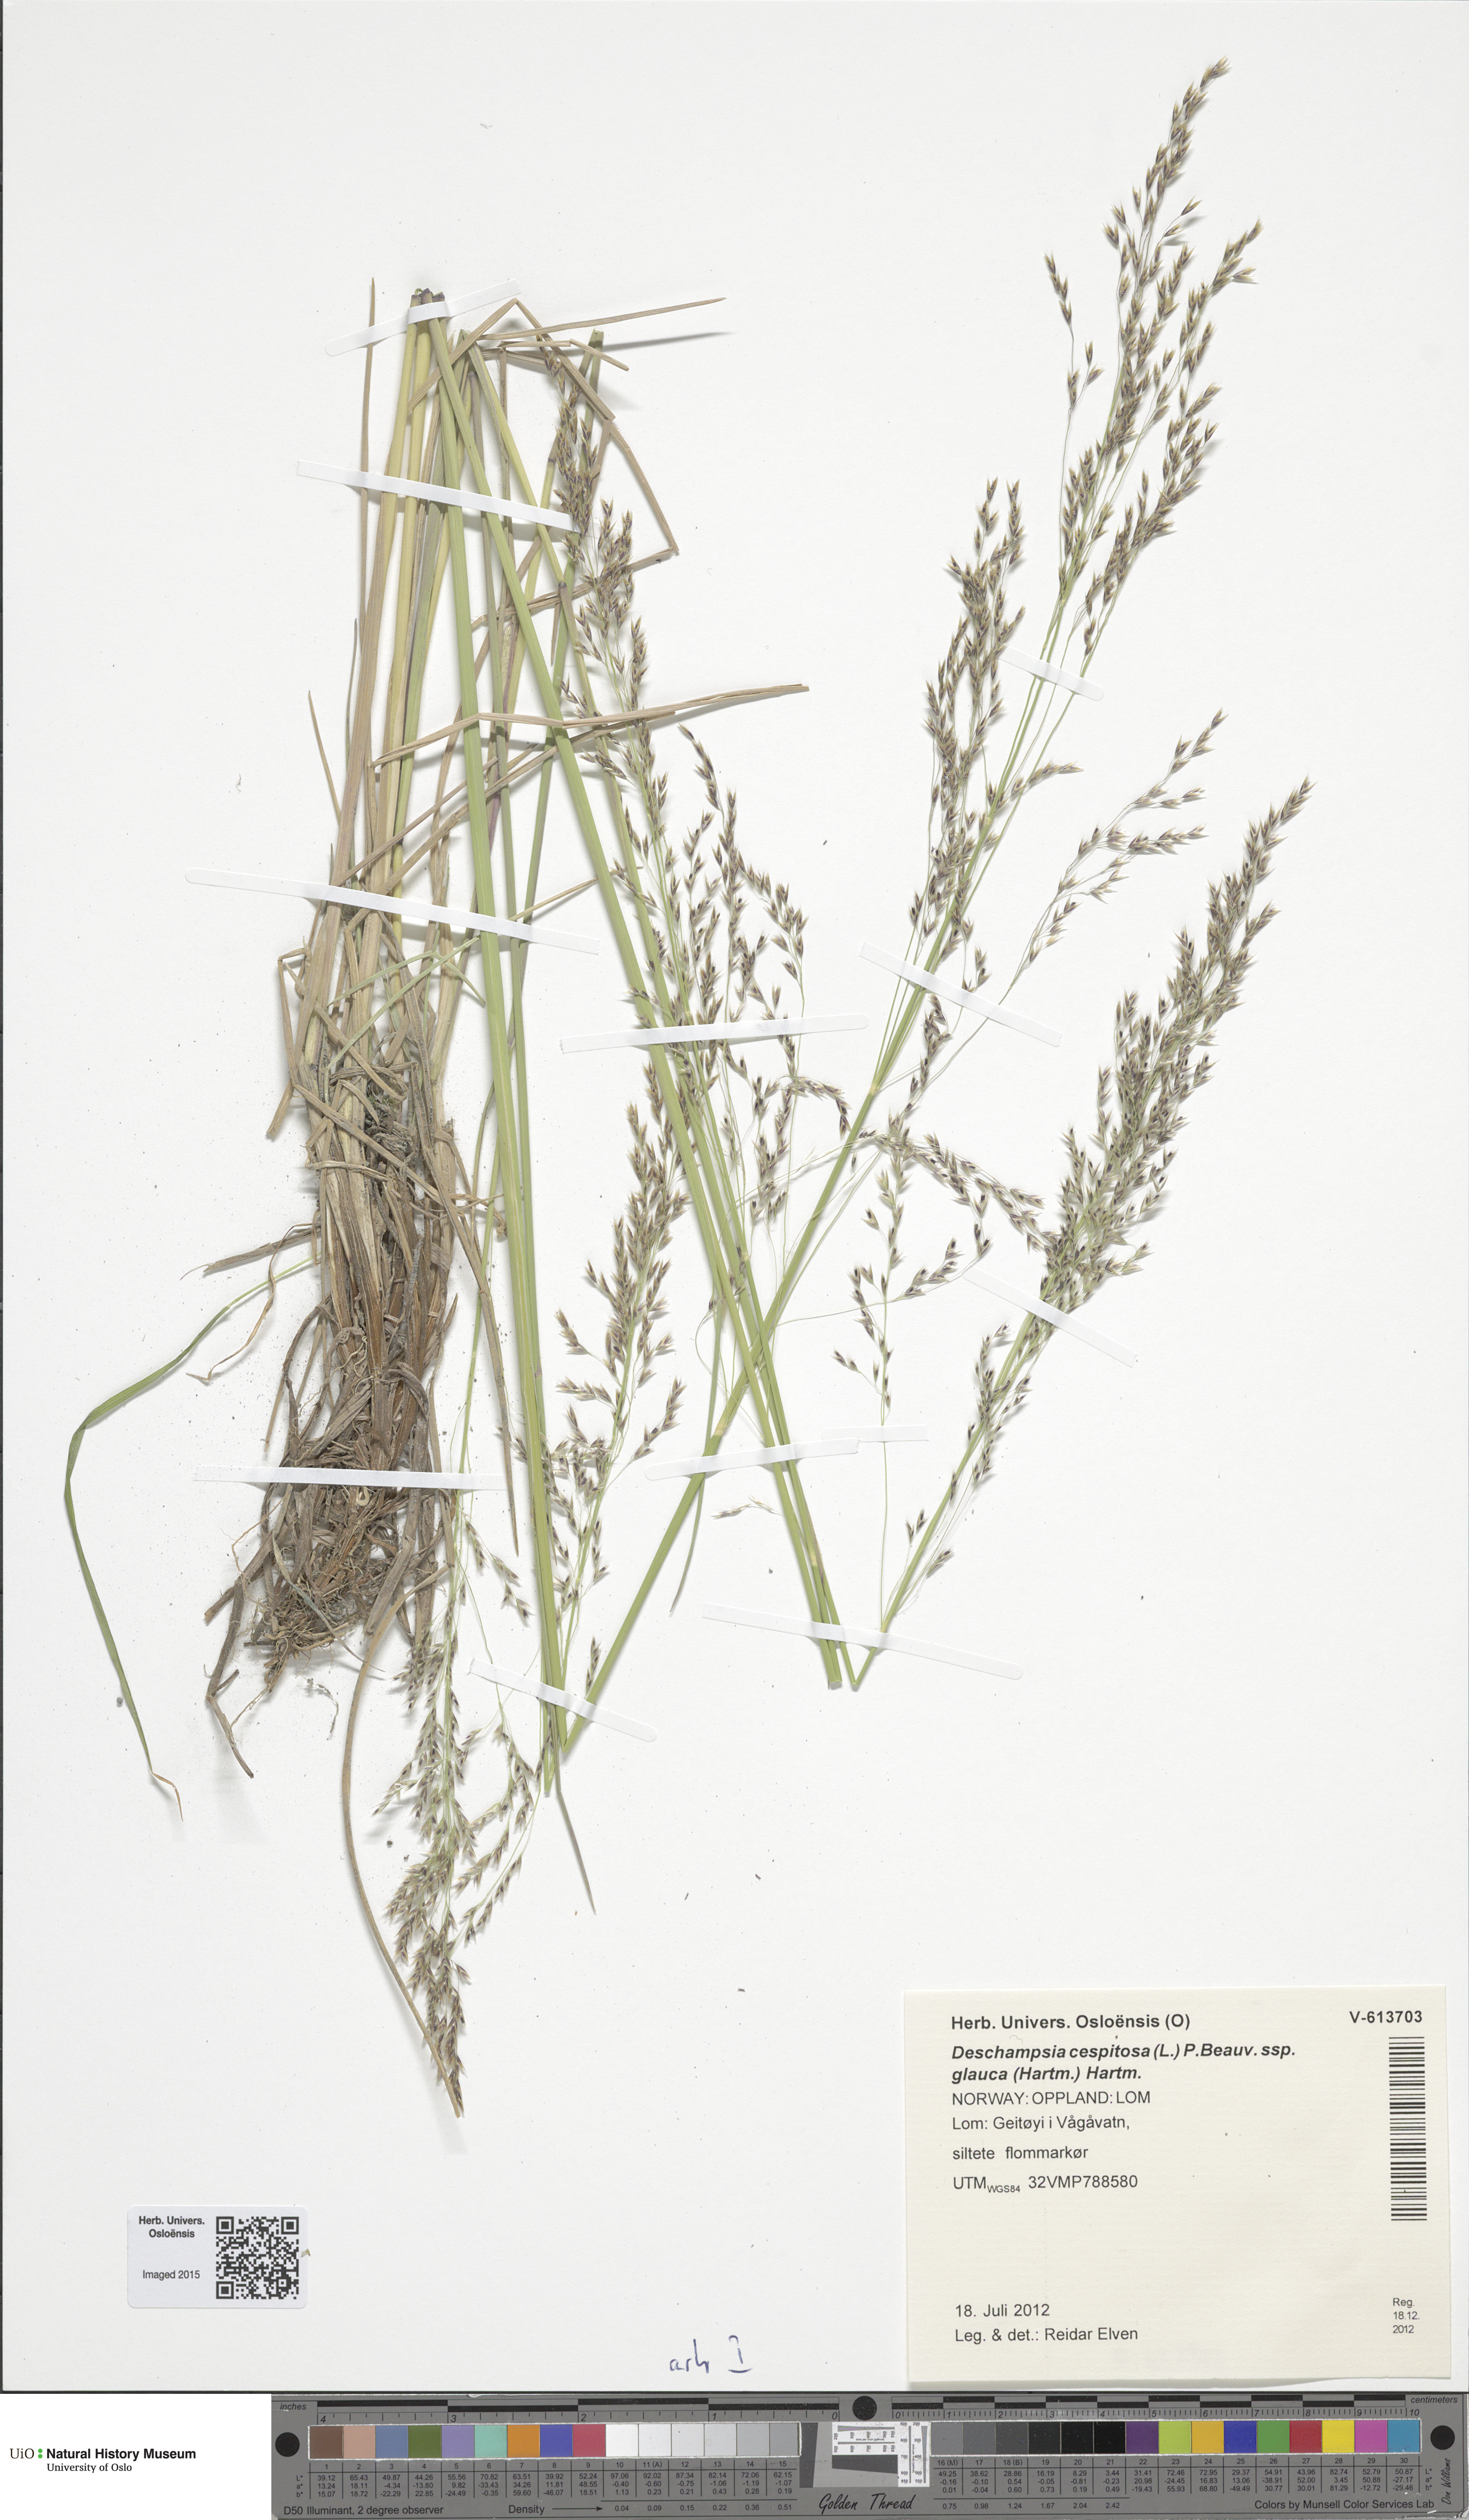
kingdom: Plantae
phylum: Tracheophyta
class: Liliopsida
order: Poales
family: Poaceae
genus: Deschampsia
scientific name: Deschampsia cespitosa
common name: Tufted hair-grass
